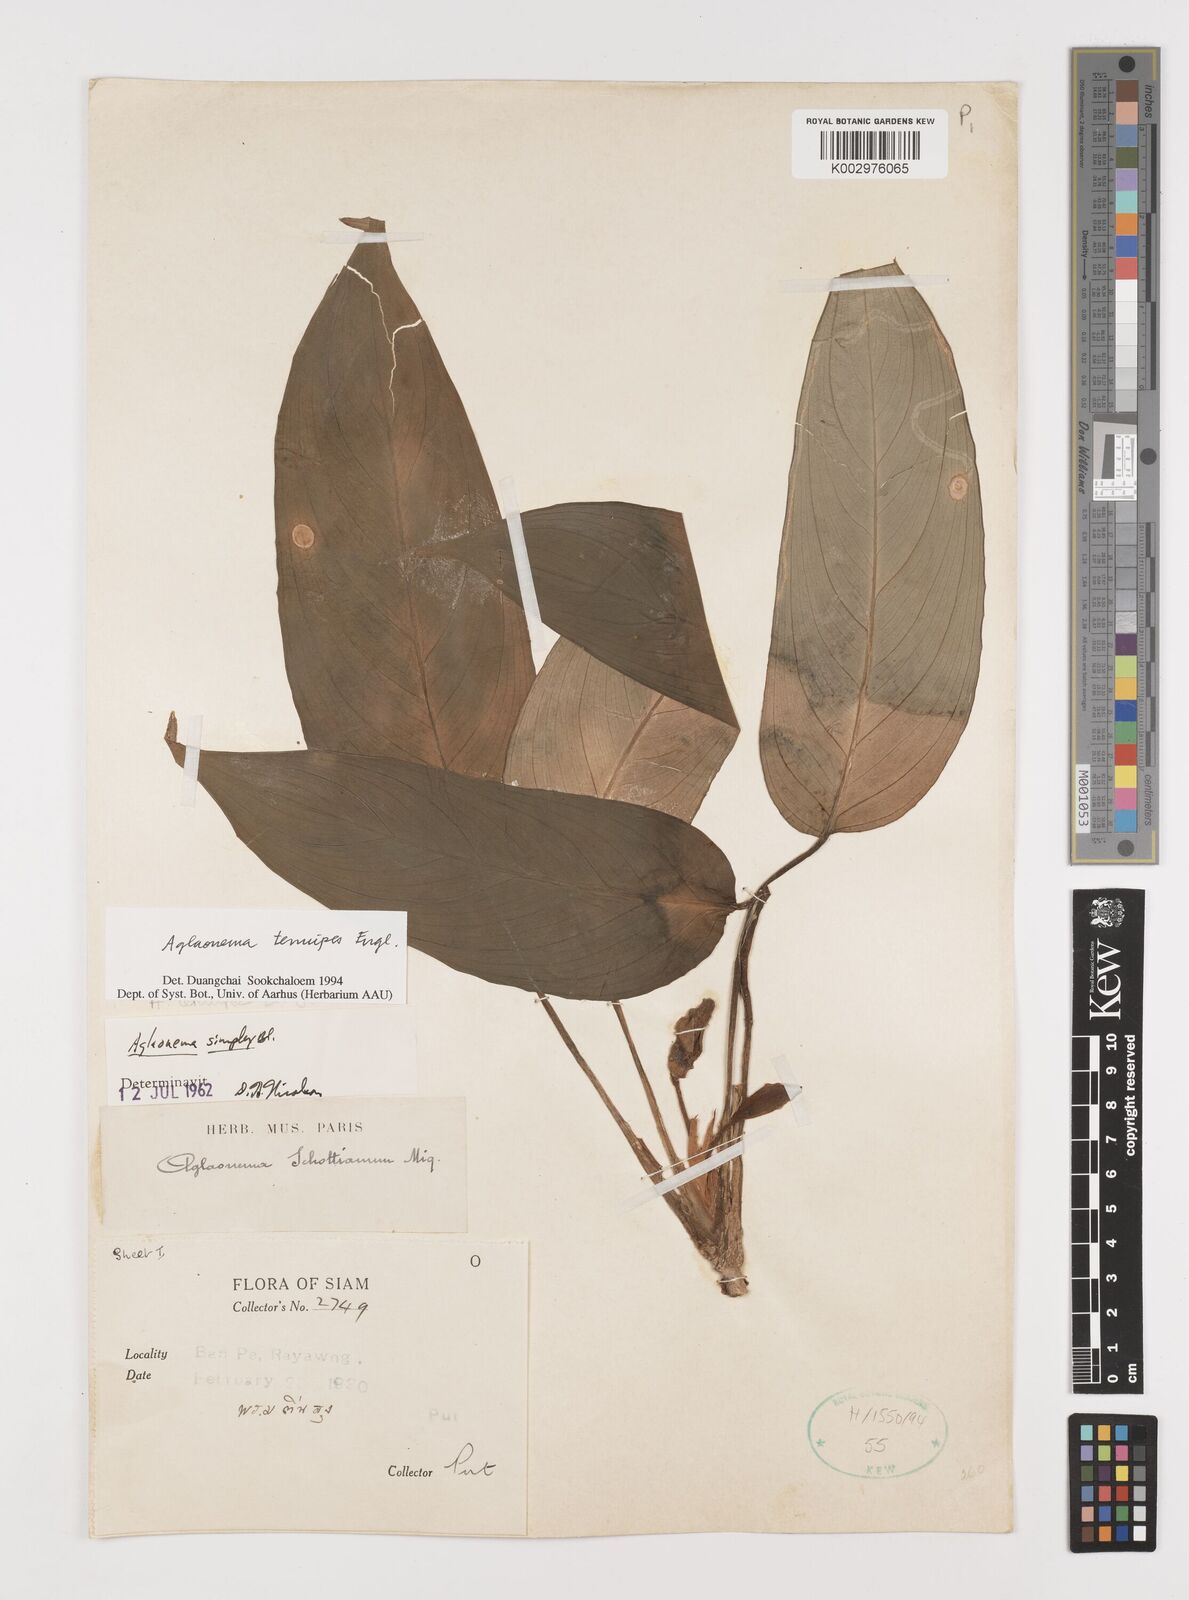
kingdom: Plantae
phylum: Tracheophyta
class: Liliopsida
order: Alismatales
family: Araceae
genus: Aglaonema
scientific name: Aglaonema simplex
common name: Malayan-sword
